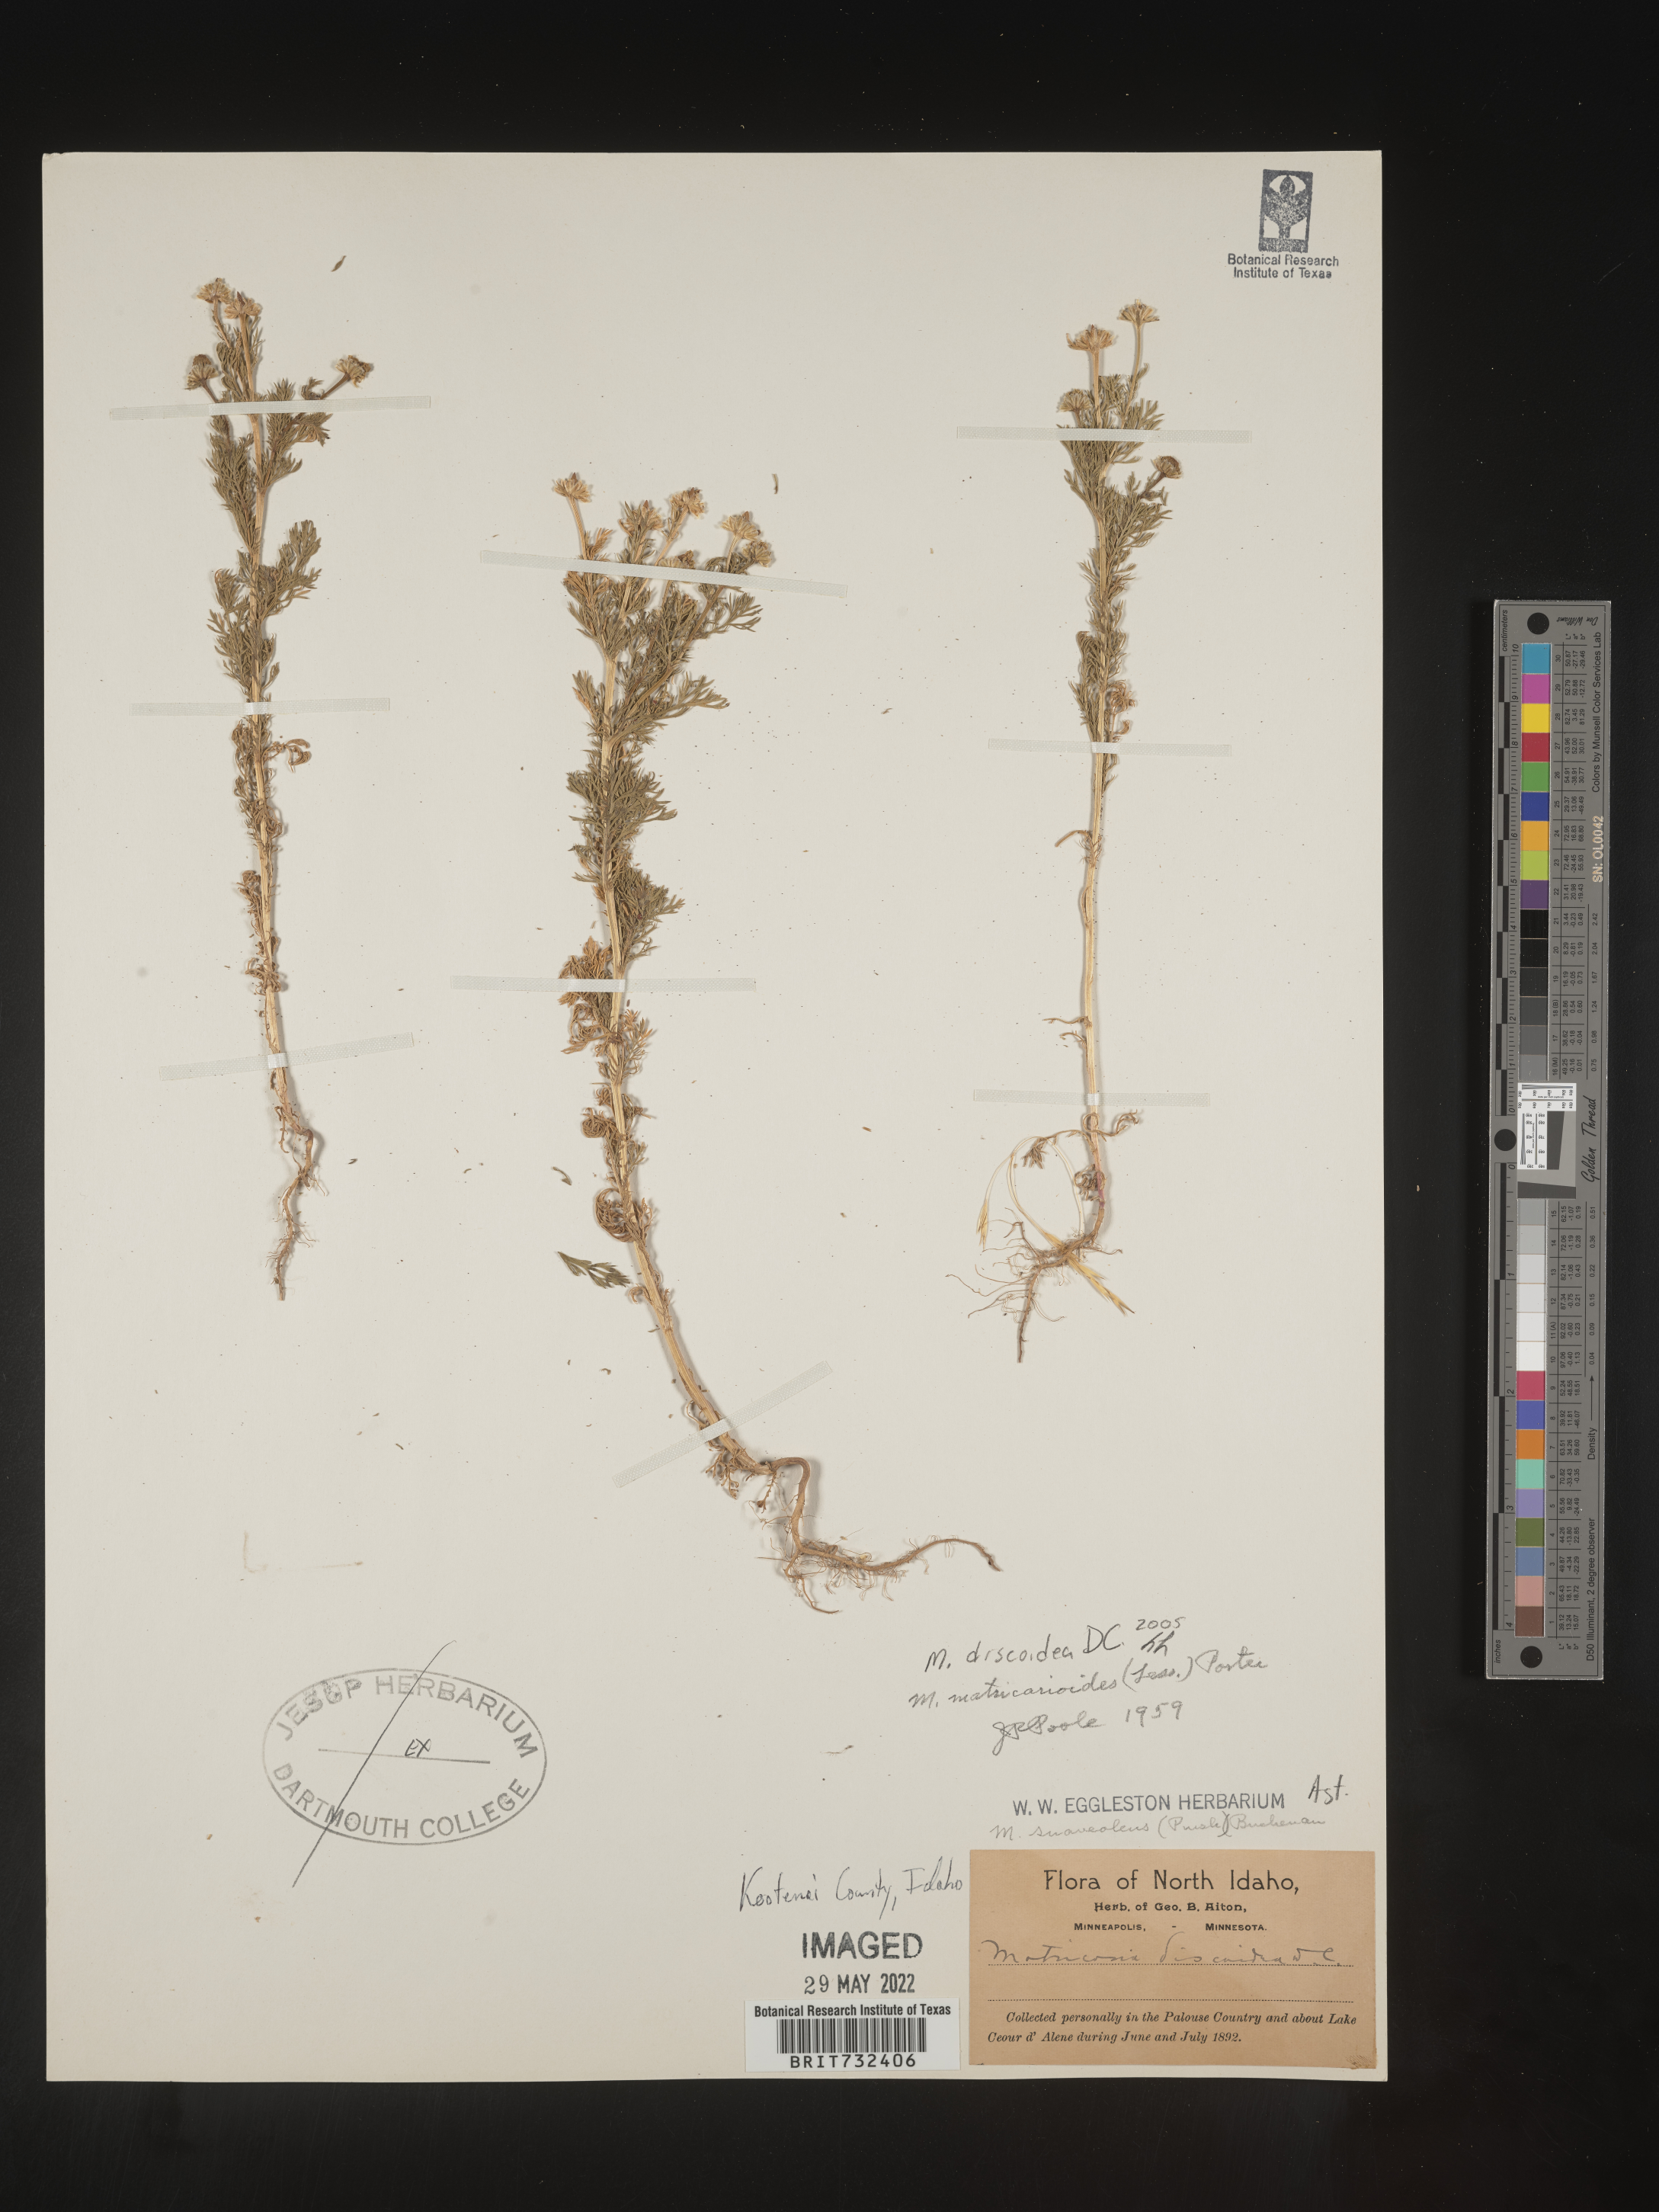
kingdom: Plantae
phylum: Tracheophyta
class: Magnoliopsida
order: Asterales
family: Asteraceae
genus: Matricaria
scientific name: Matricaria discoidea
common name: Disc mayweed
